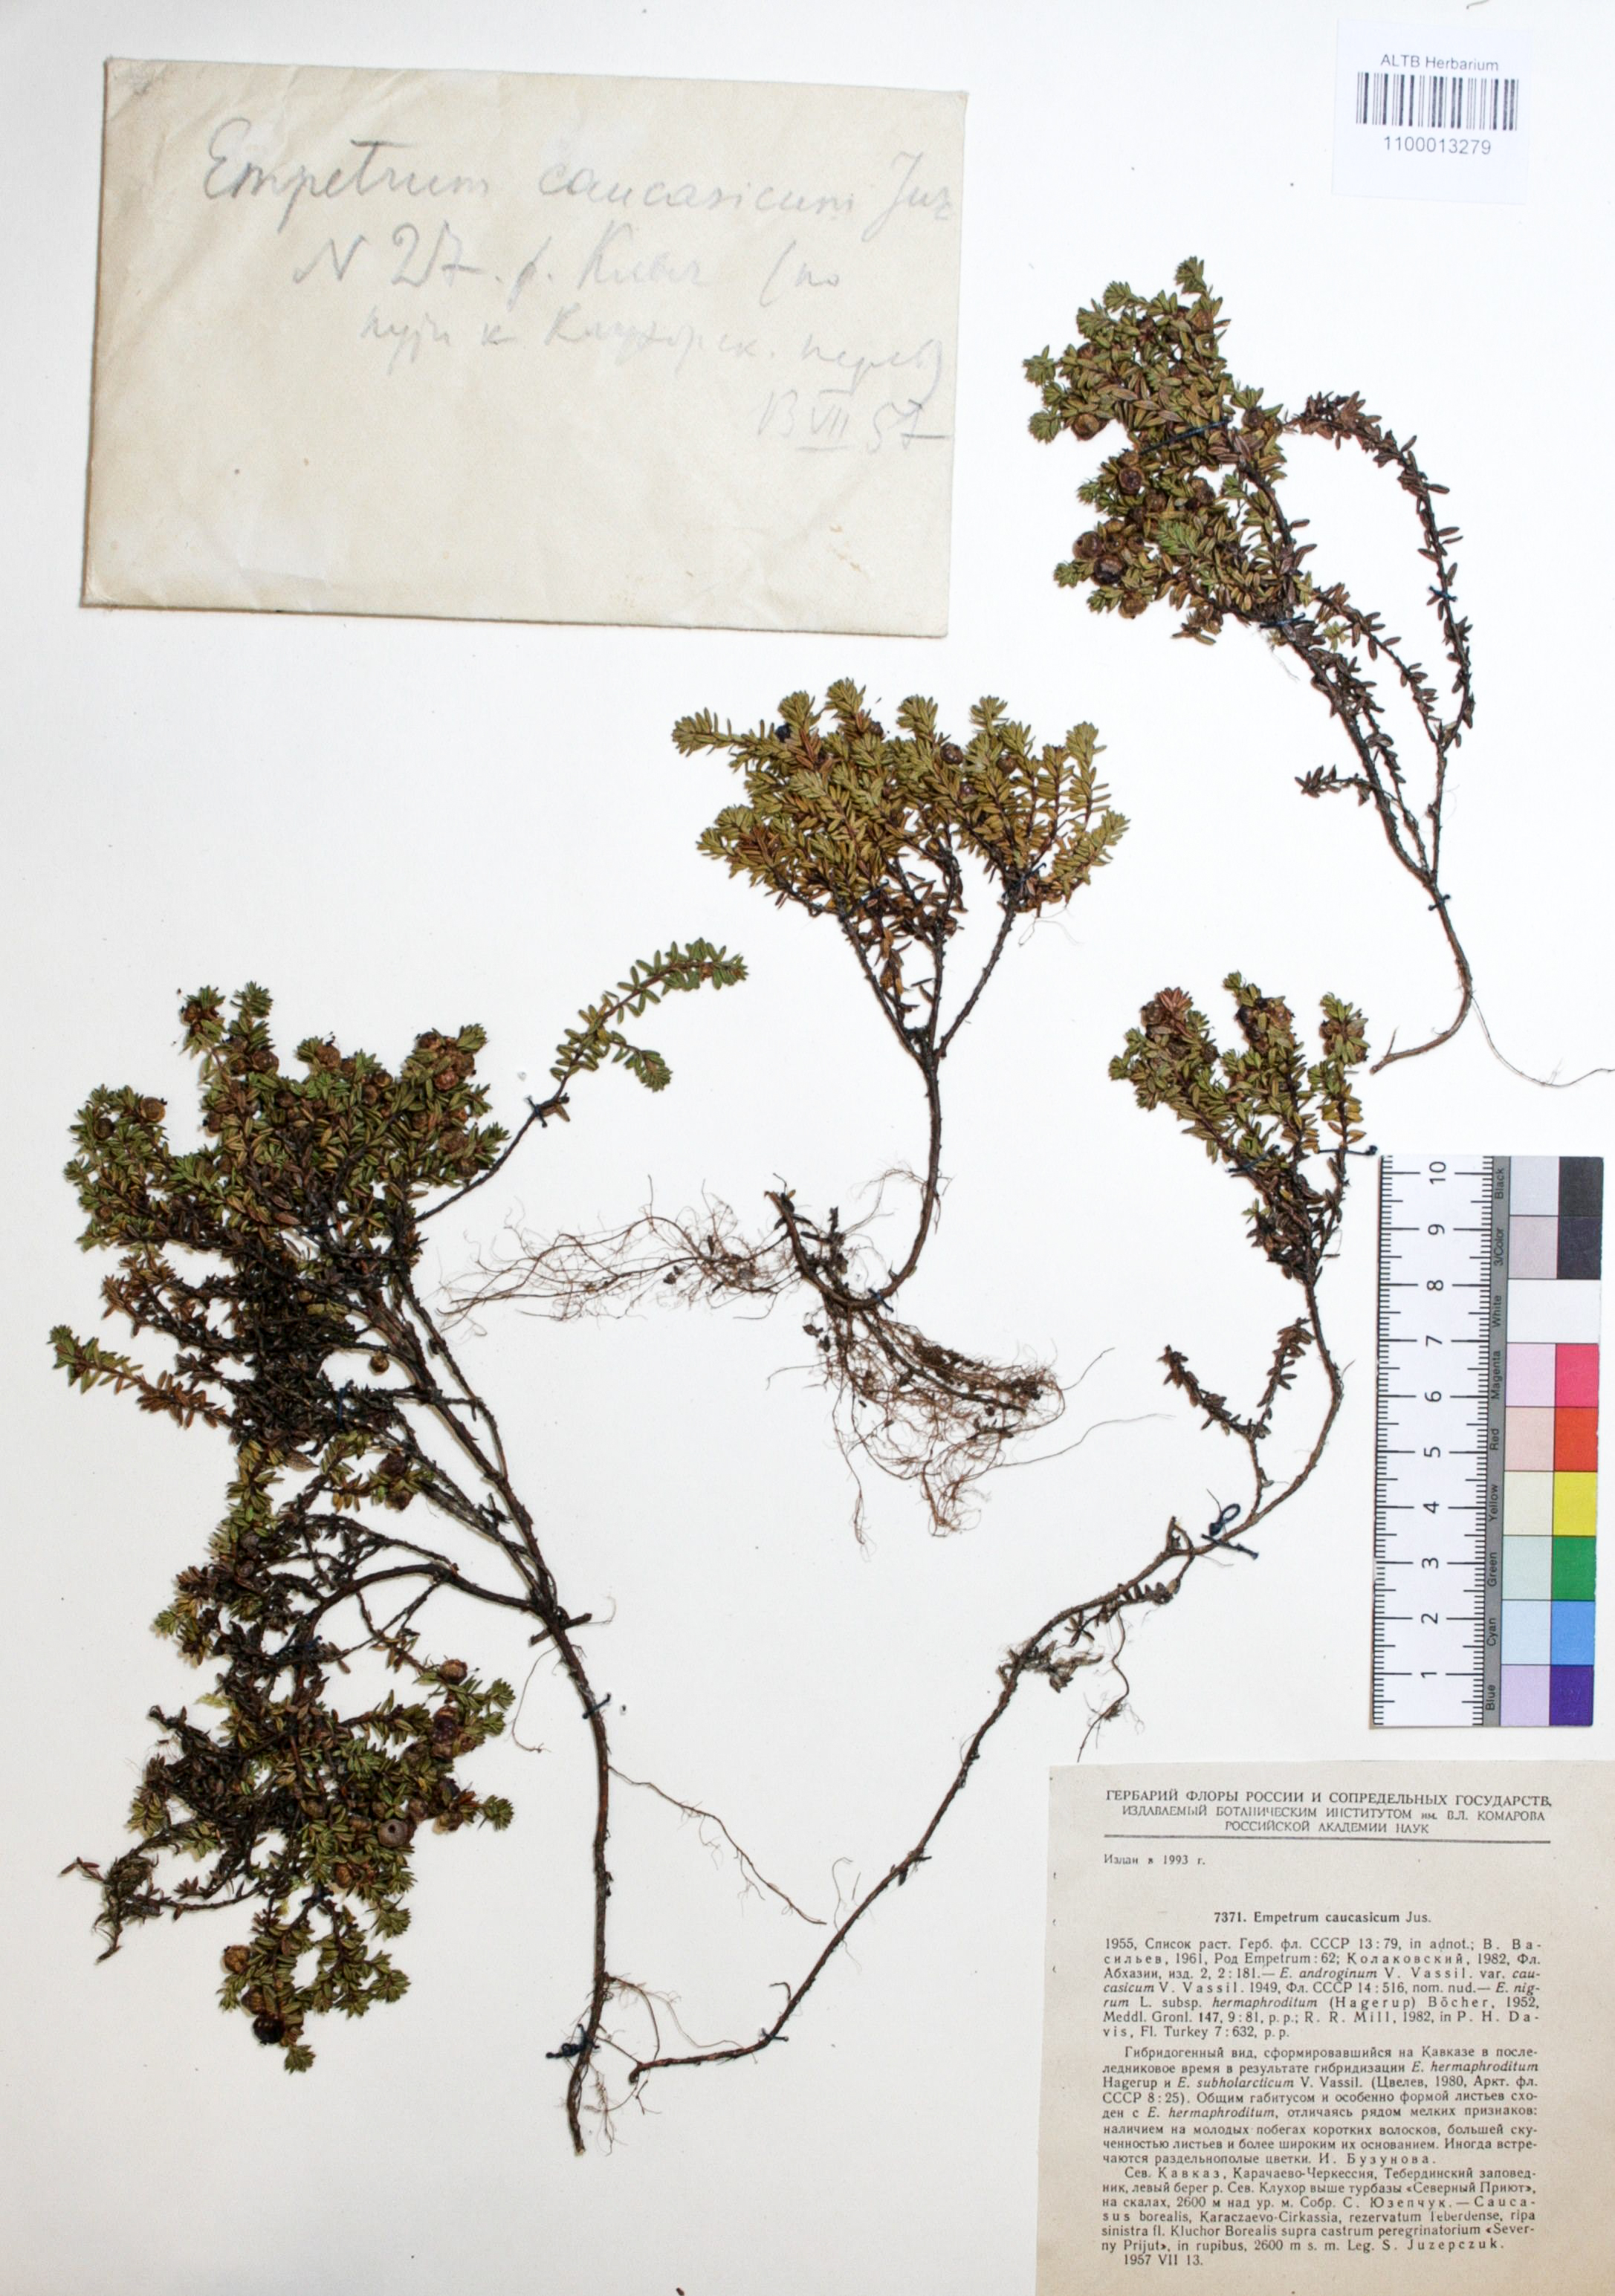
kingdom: Plantae
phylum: Tracheophyta
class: Magnoliopsida
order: Ericales
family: Ericaceae
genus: Empetrum
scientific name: Empetrum nigrum
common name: Black crowberry
